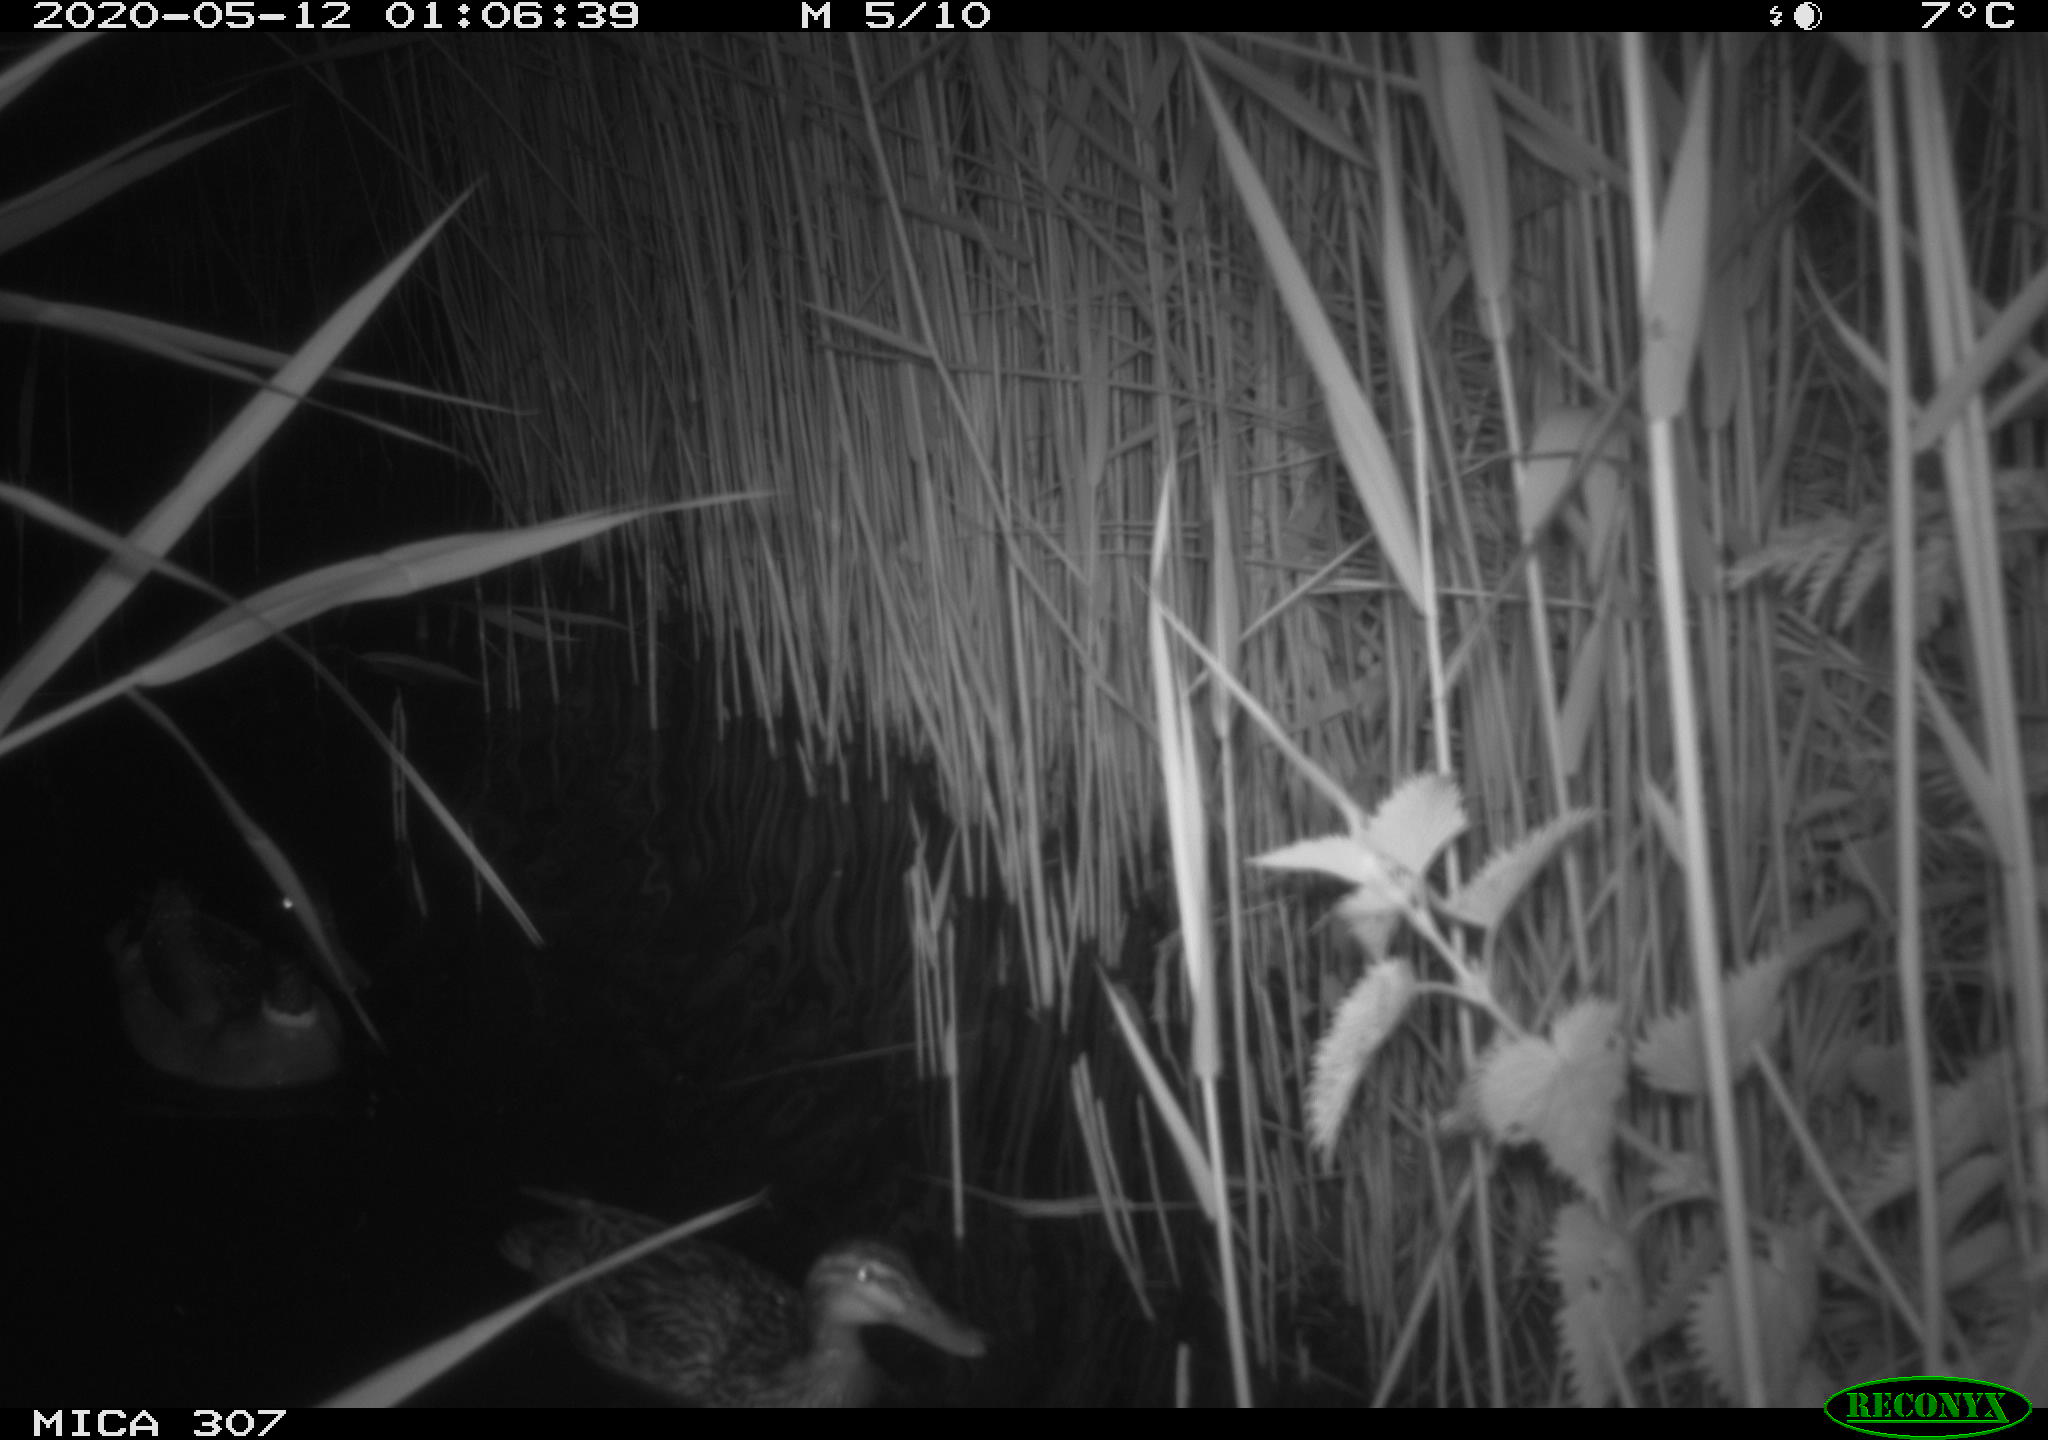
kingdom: Animalia
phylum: Chordata
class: Aves
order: Anseriformes
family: Anatidae
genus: Anas
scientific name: Anas platyrhynchos
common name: Mallard
